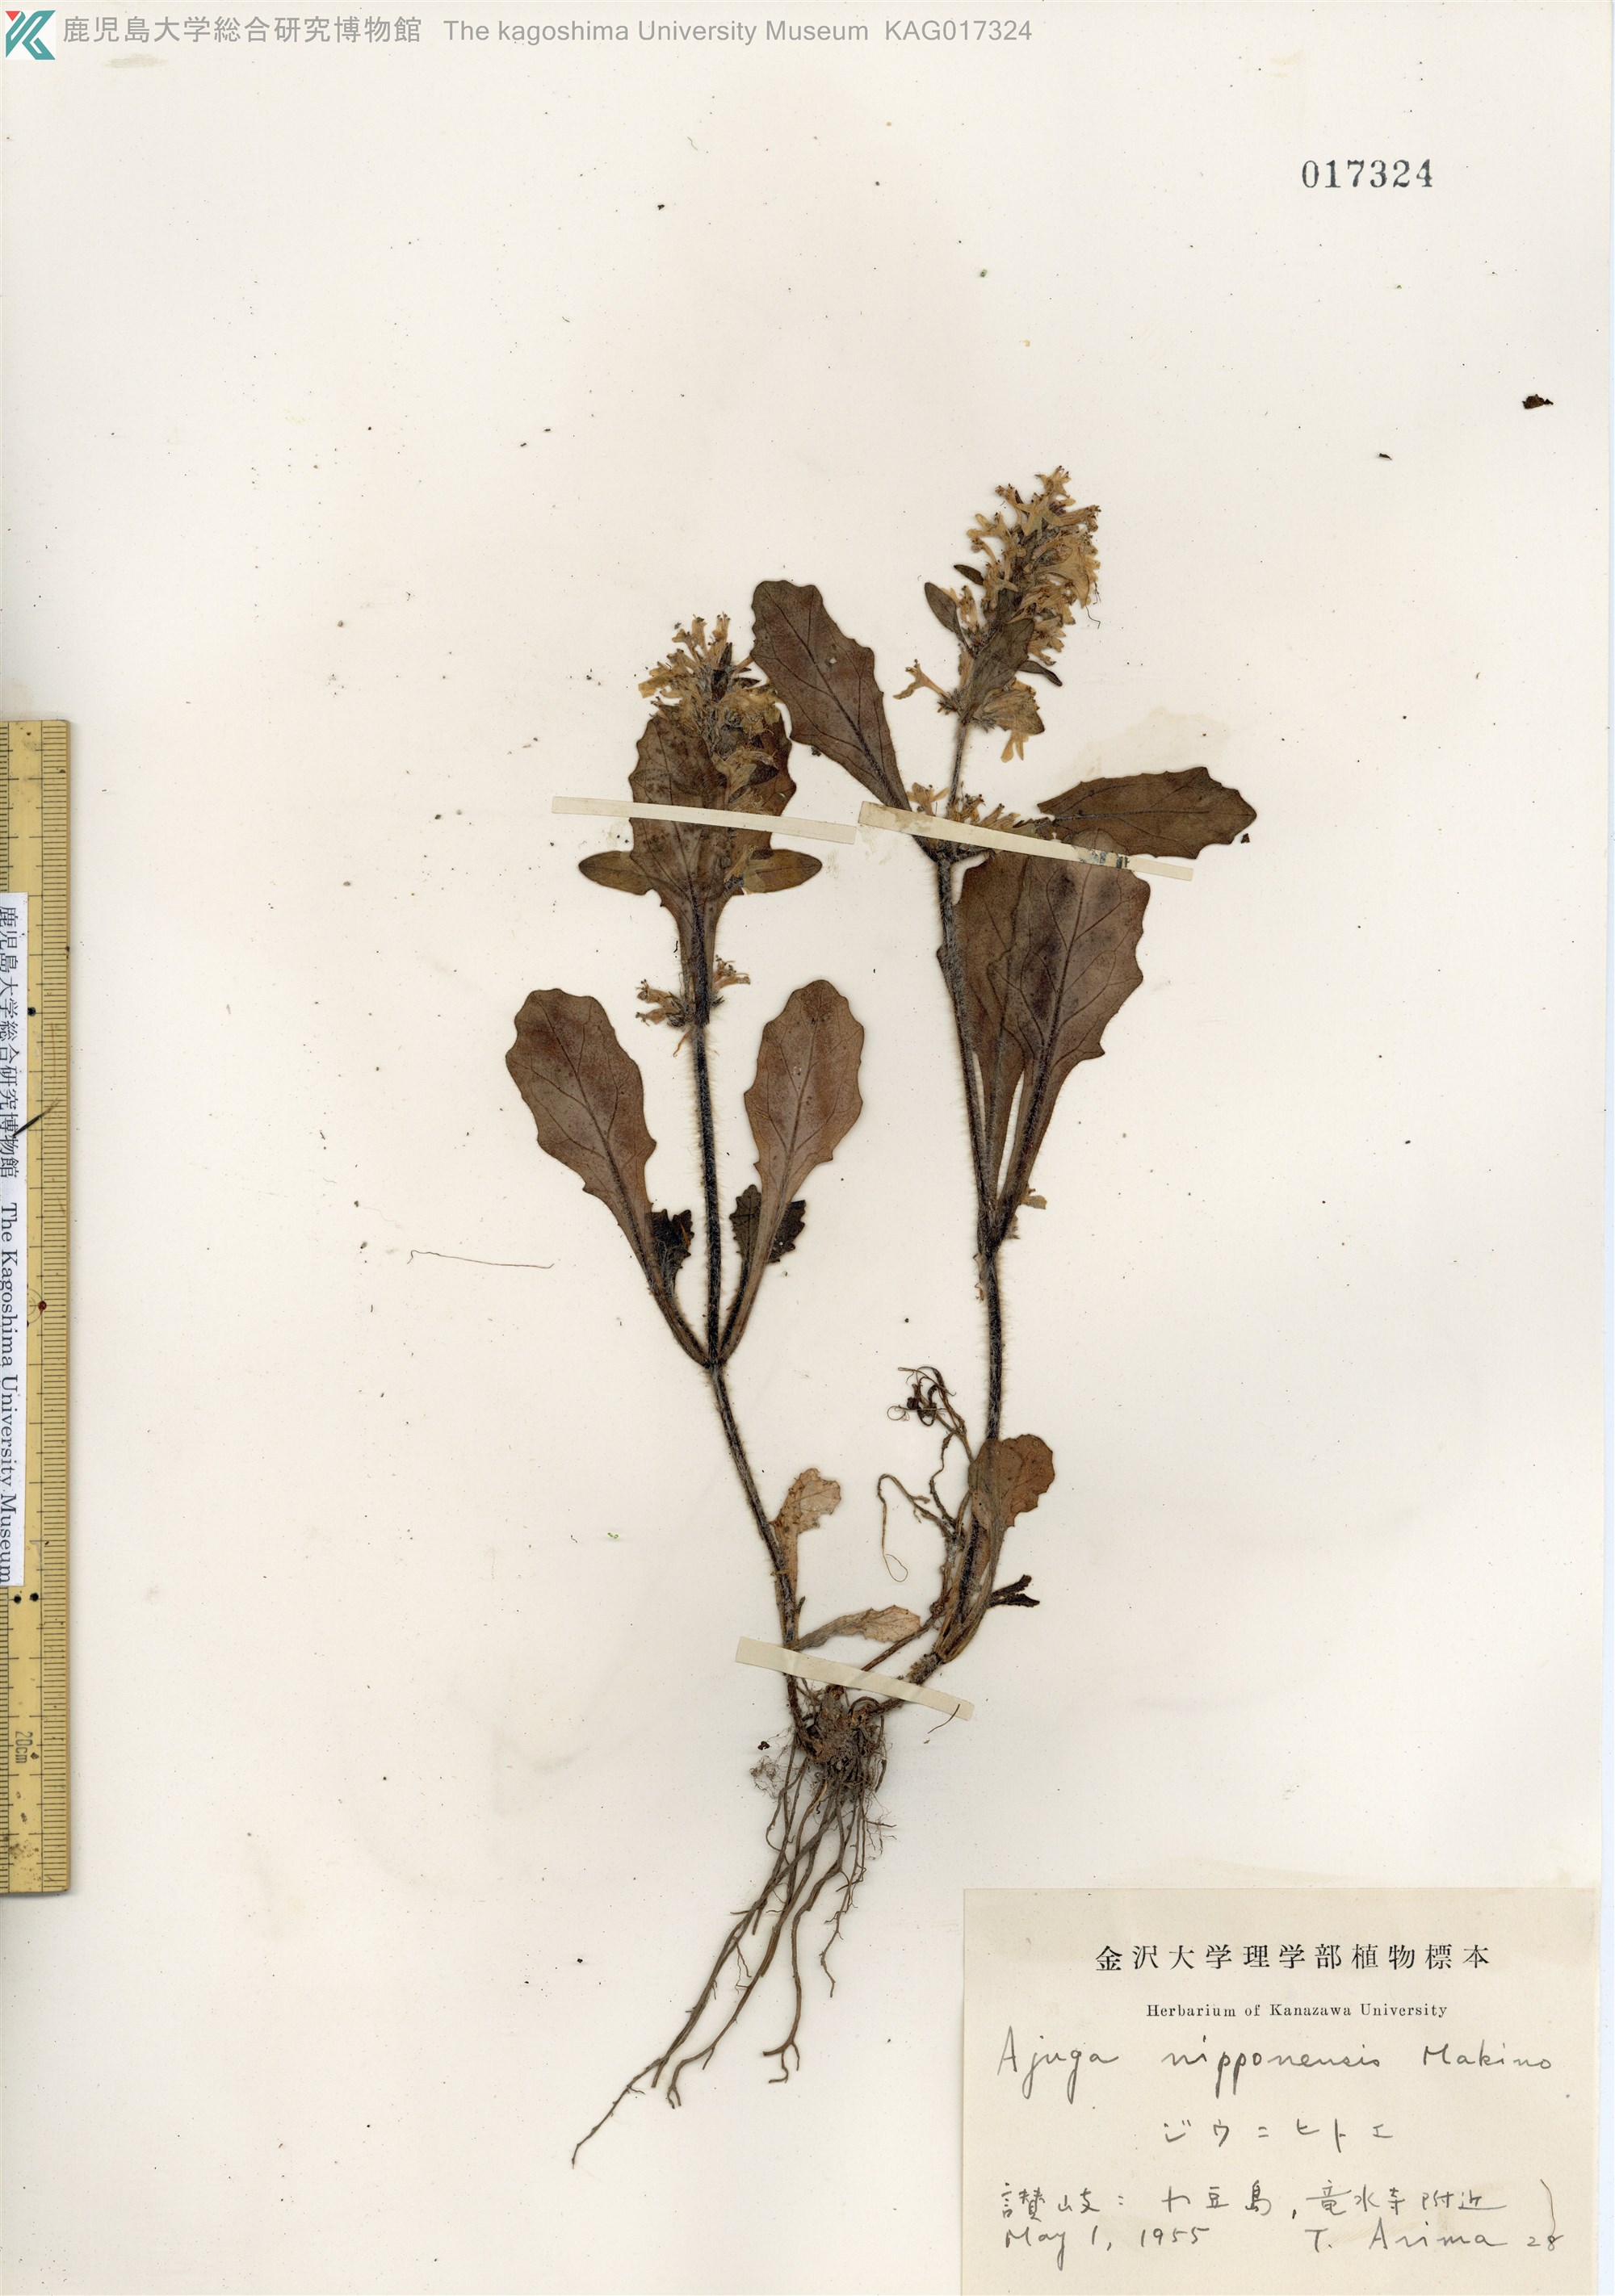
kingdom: Plantae
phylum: Tracheophyta
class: Magnoliopsida
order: Lamiales
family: Lamiaceae
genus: Ajuga
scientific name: Ajuga nipponensis
